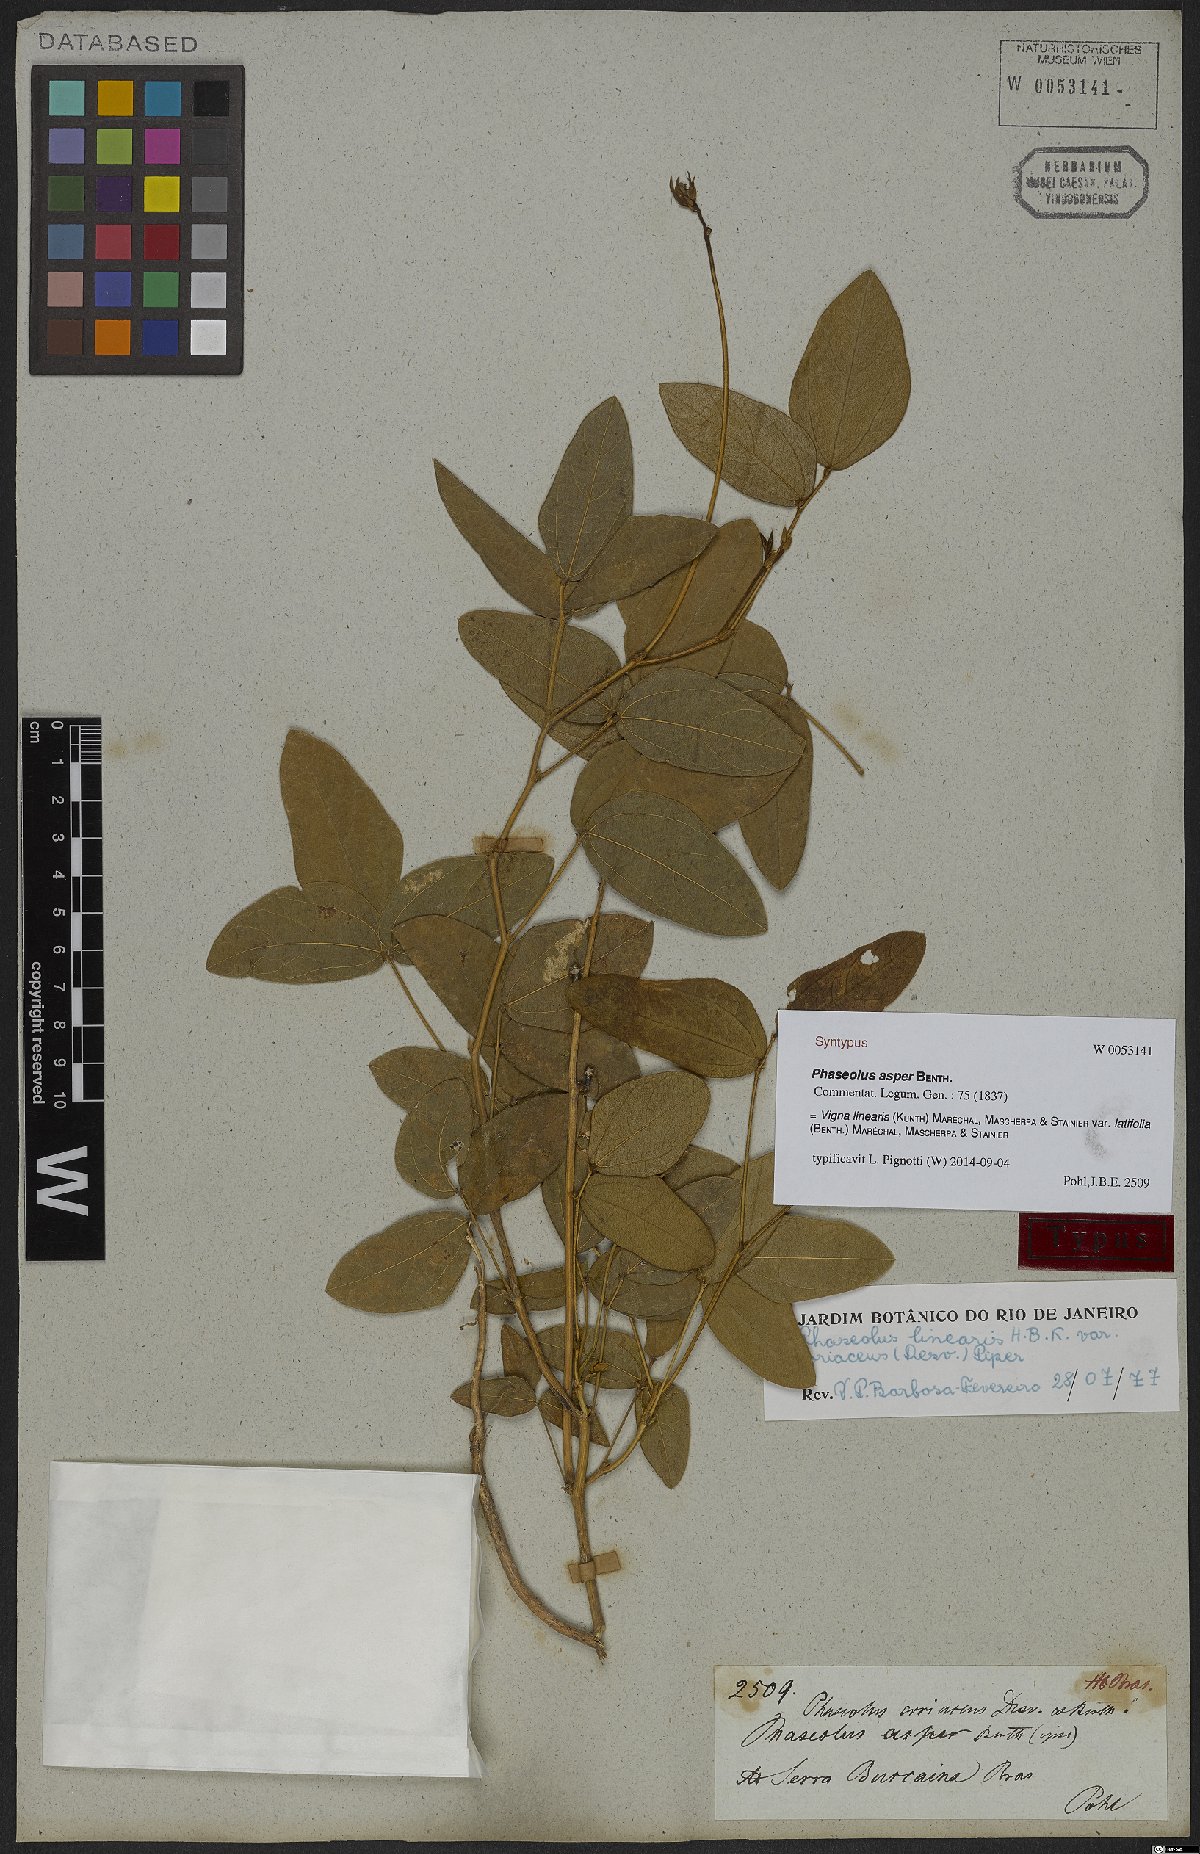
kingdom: Plantae
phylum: Tracheophyta
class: Magnoliopsida
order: Fabales
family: Fabaceae
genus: Helicotropis
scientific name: Helicotropis linearis
